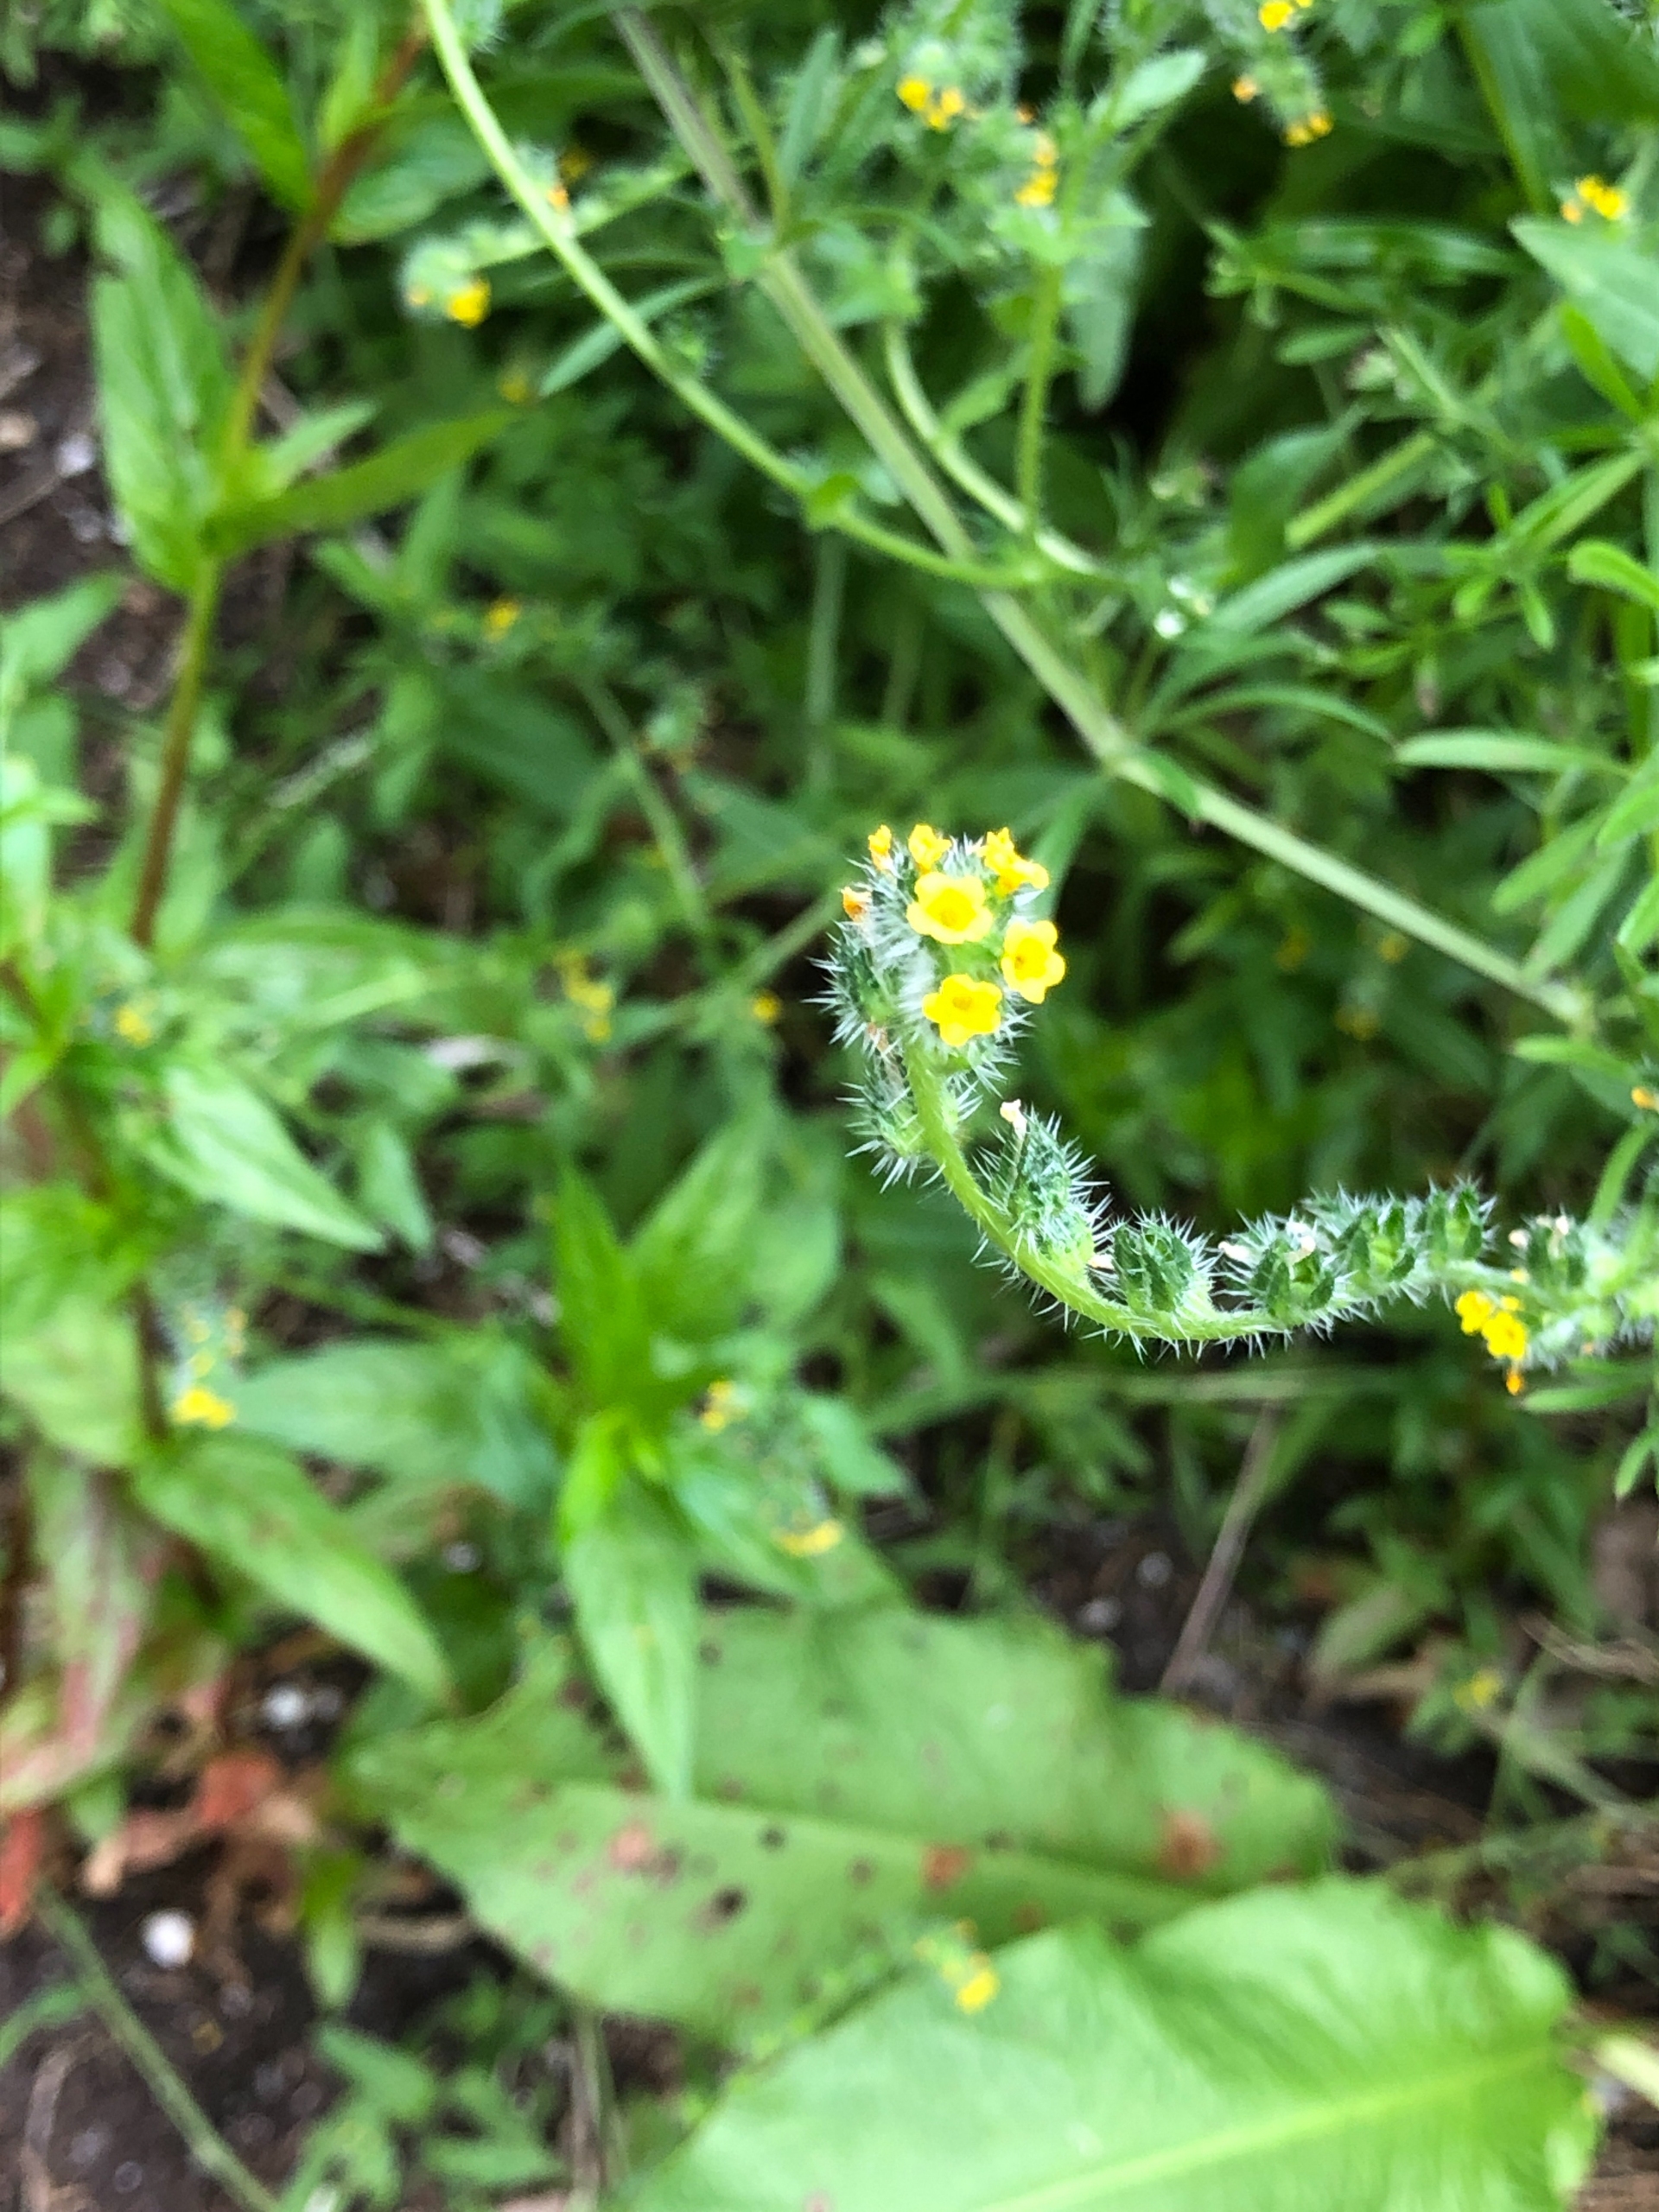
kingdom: Plantae
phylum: Tracheophyta
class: Magnoliopsida
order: Boraginales
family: Boraginaceae
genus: Amsinckia
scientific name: Amsinckia menziesii
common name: Småblomstret gulurt
